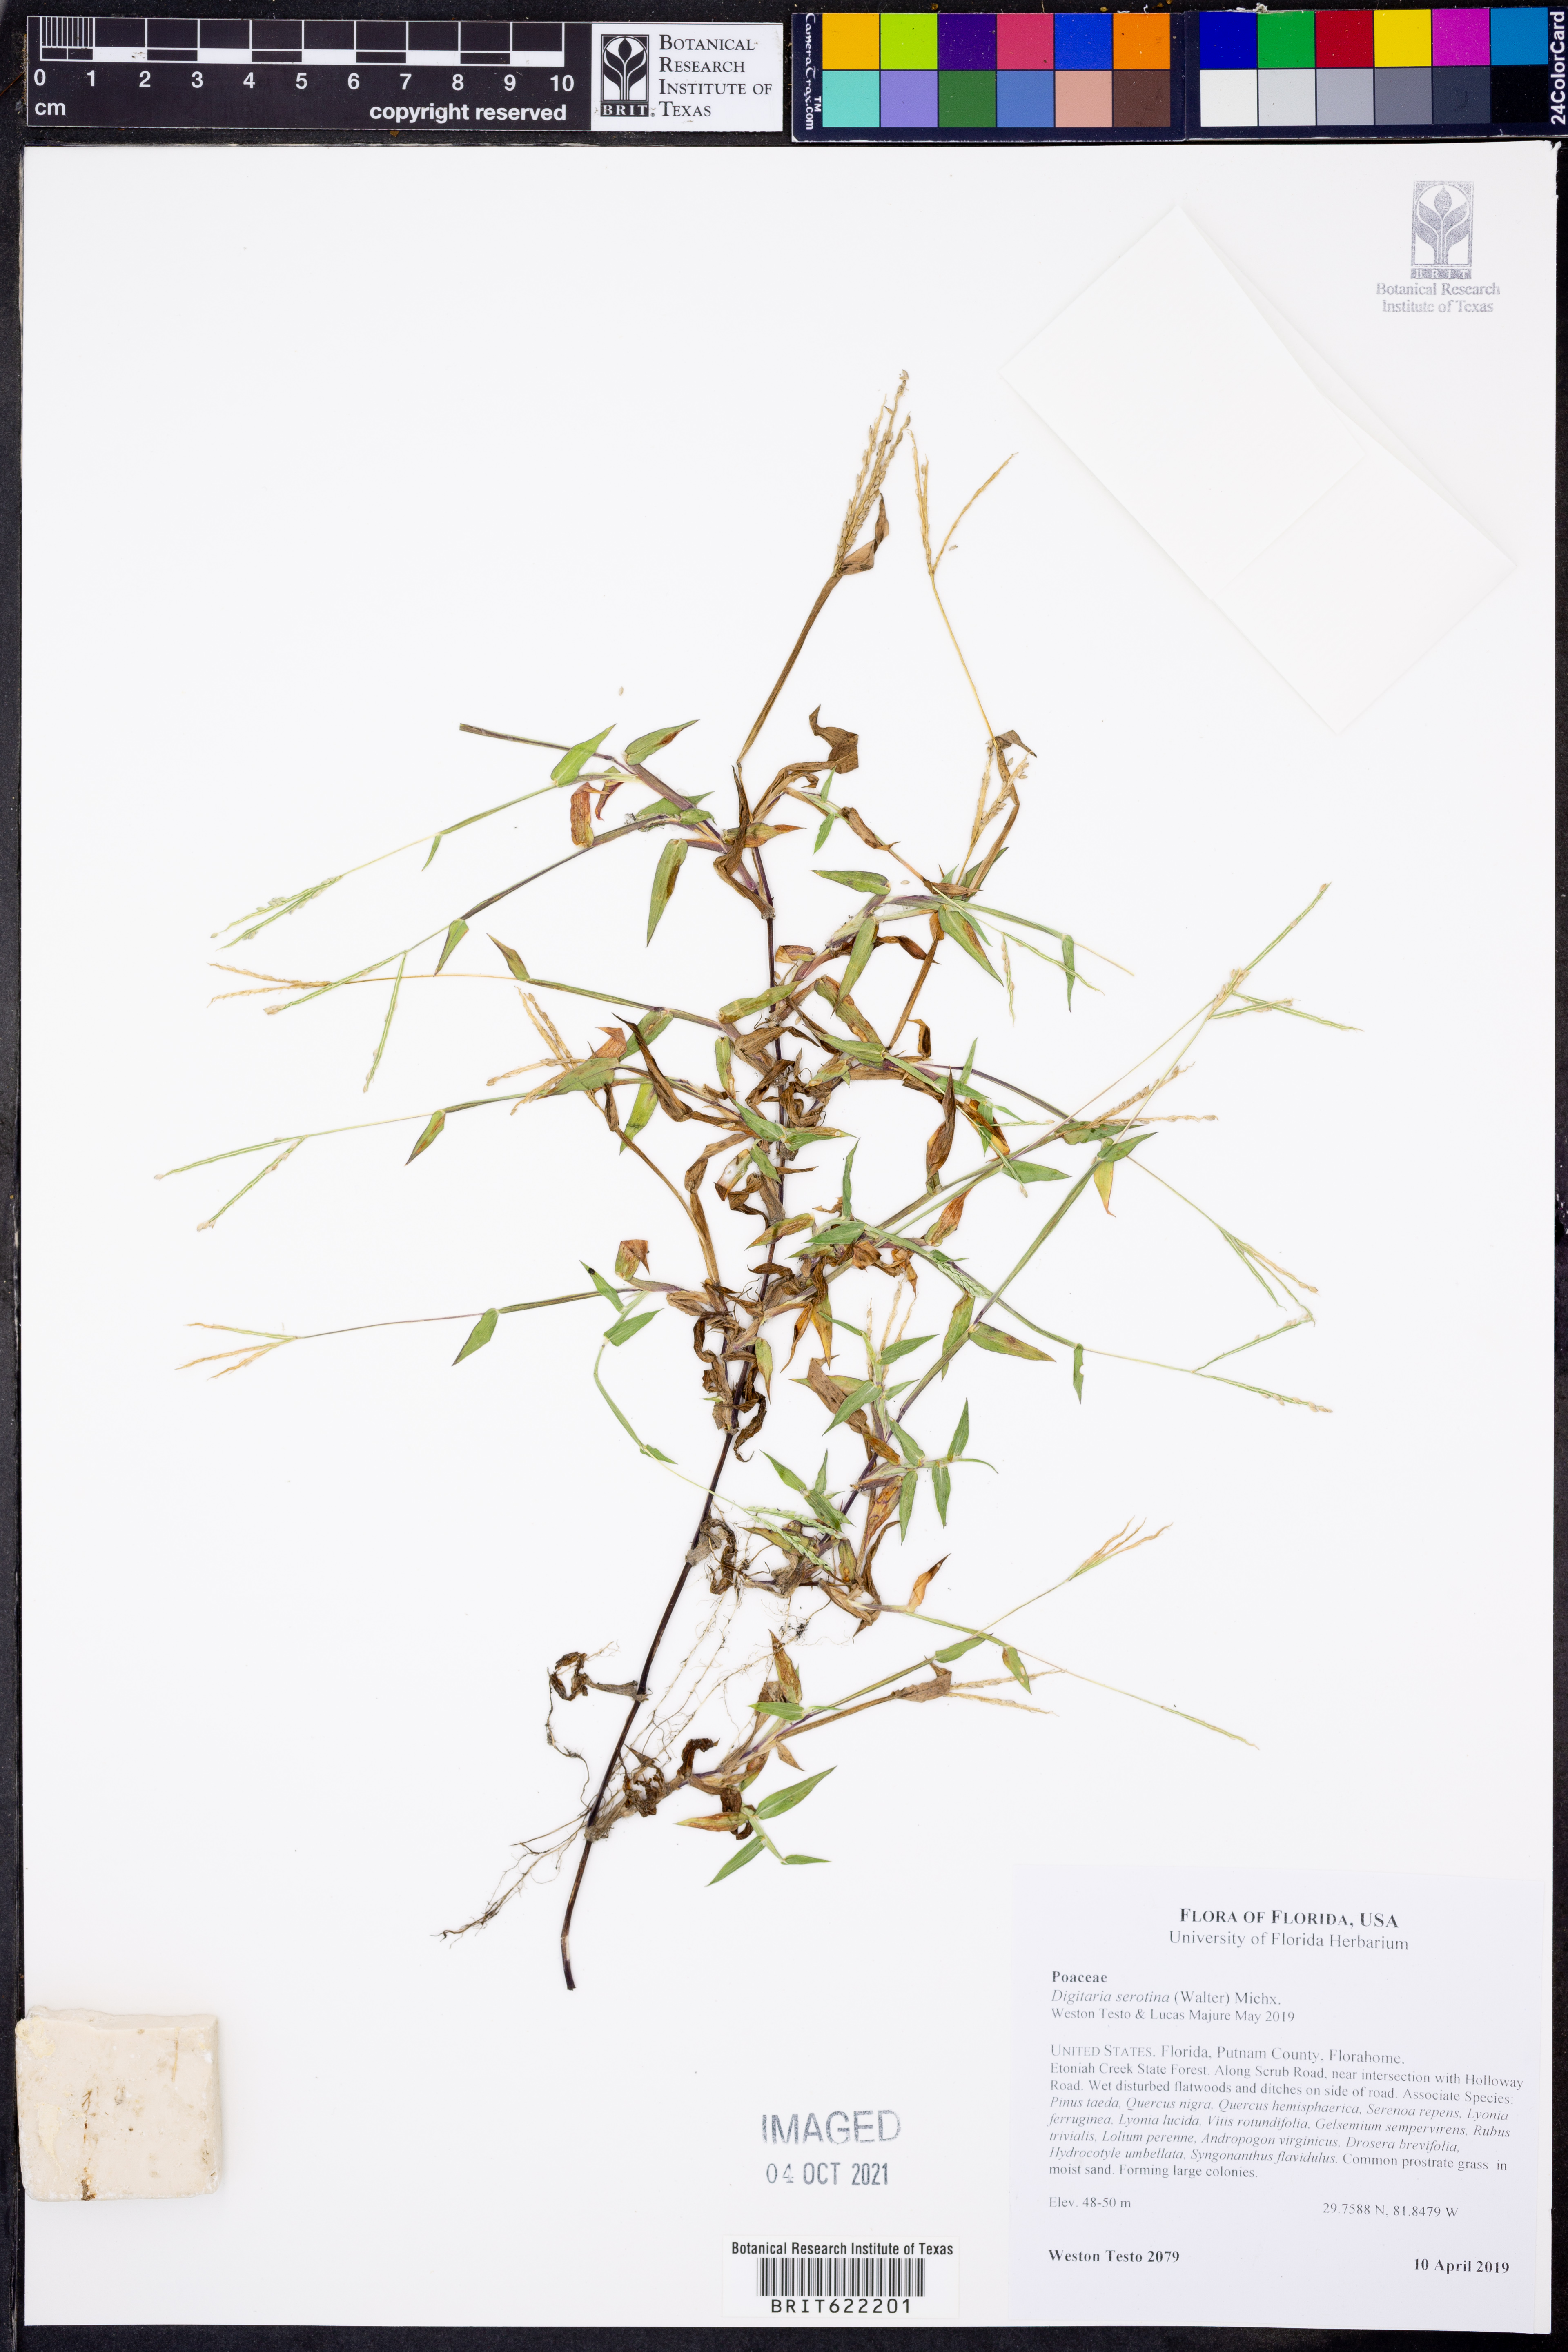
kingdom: Plantae
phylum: Tracheophyta
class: Liliopsida
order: Poales
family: Poaceae
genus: Digitaria
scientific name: Digitaria serotina
